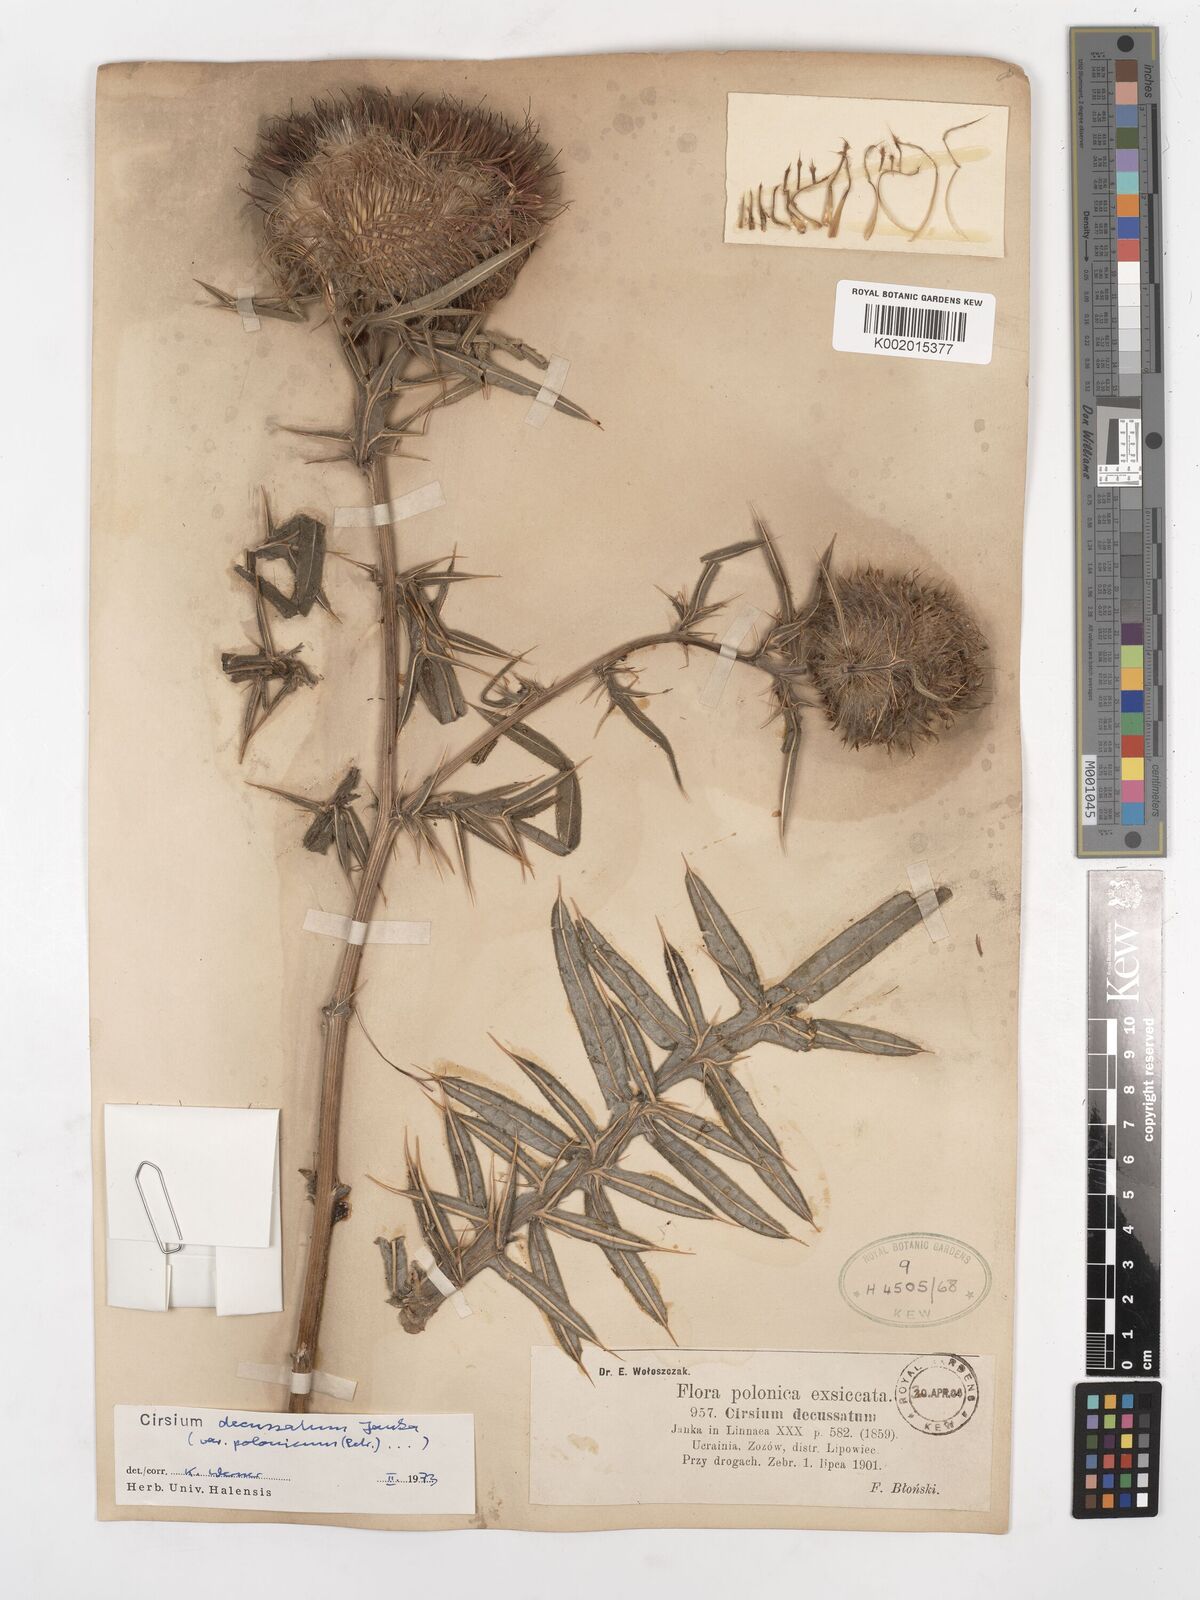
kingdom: Plantae
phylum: Tracheophyta
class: Magnoliopsida
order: Asterales
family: Asteraceae
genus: Lophiolepis
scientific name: Lophiolepis decussata
